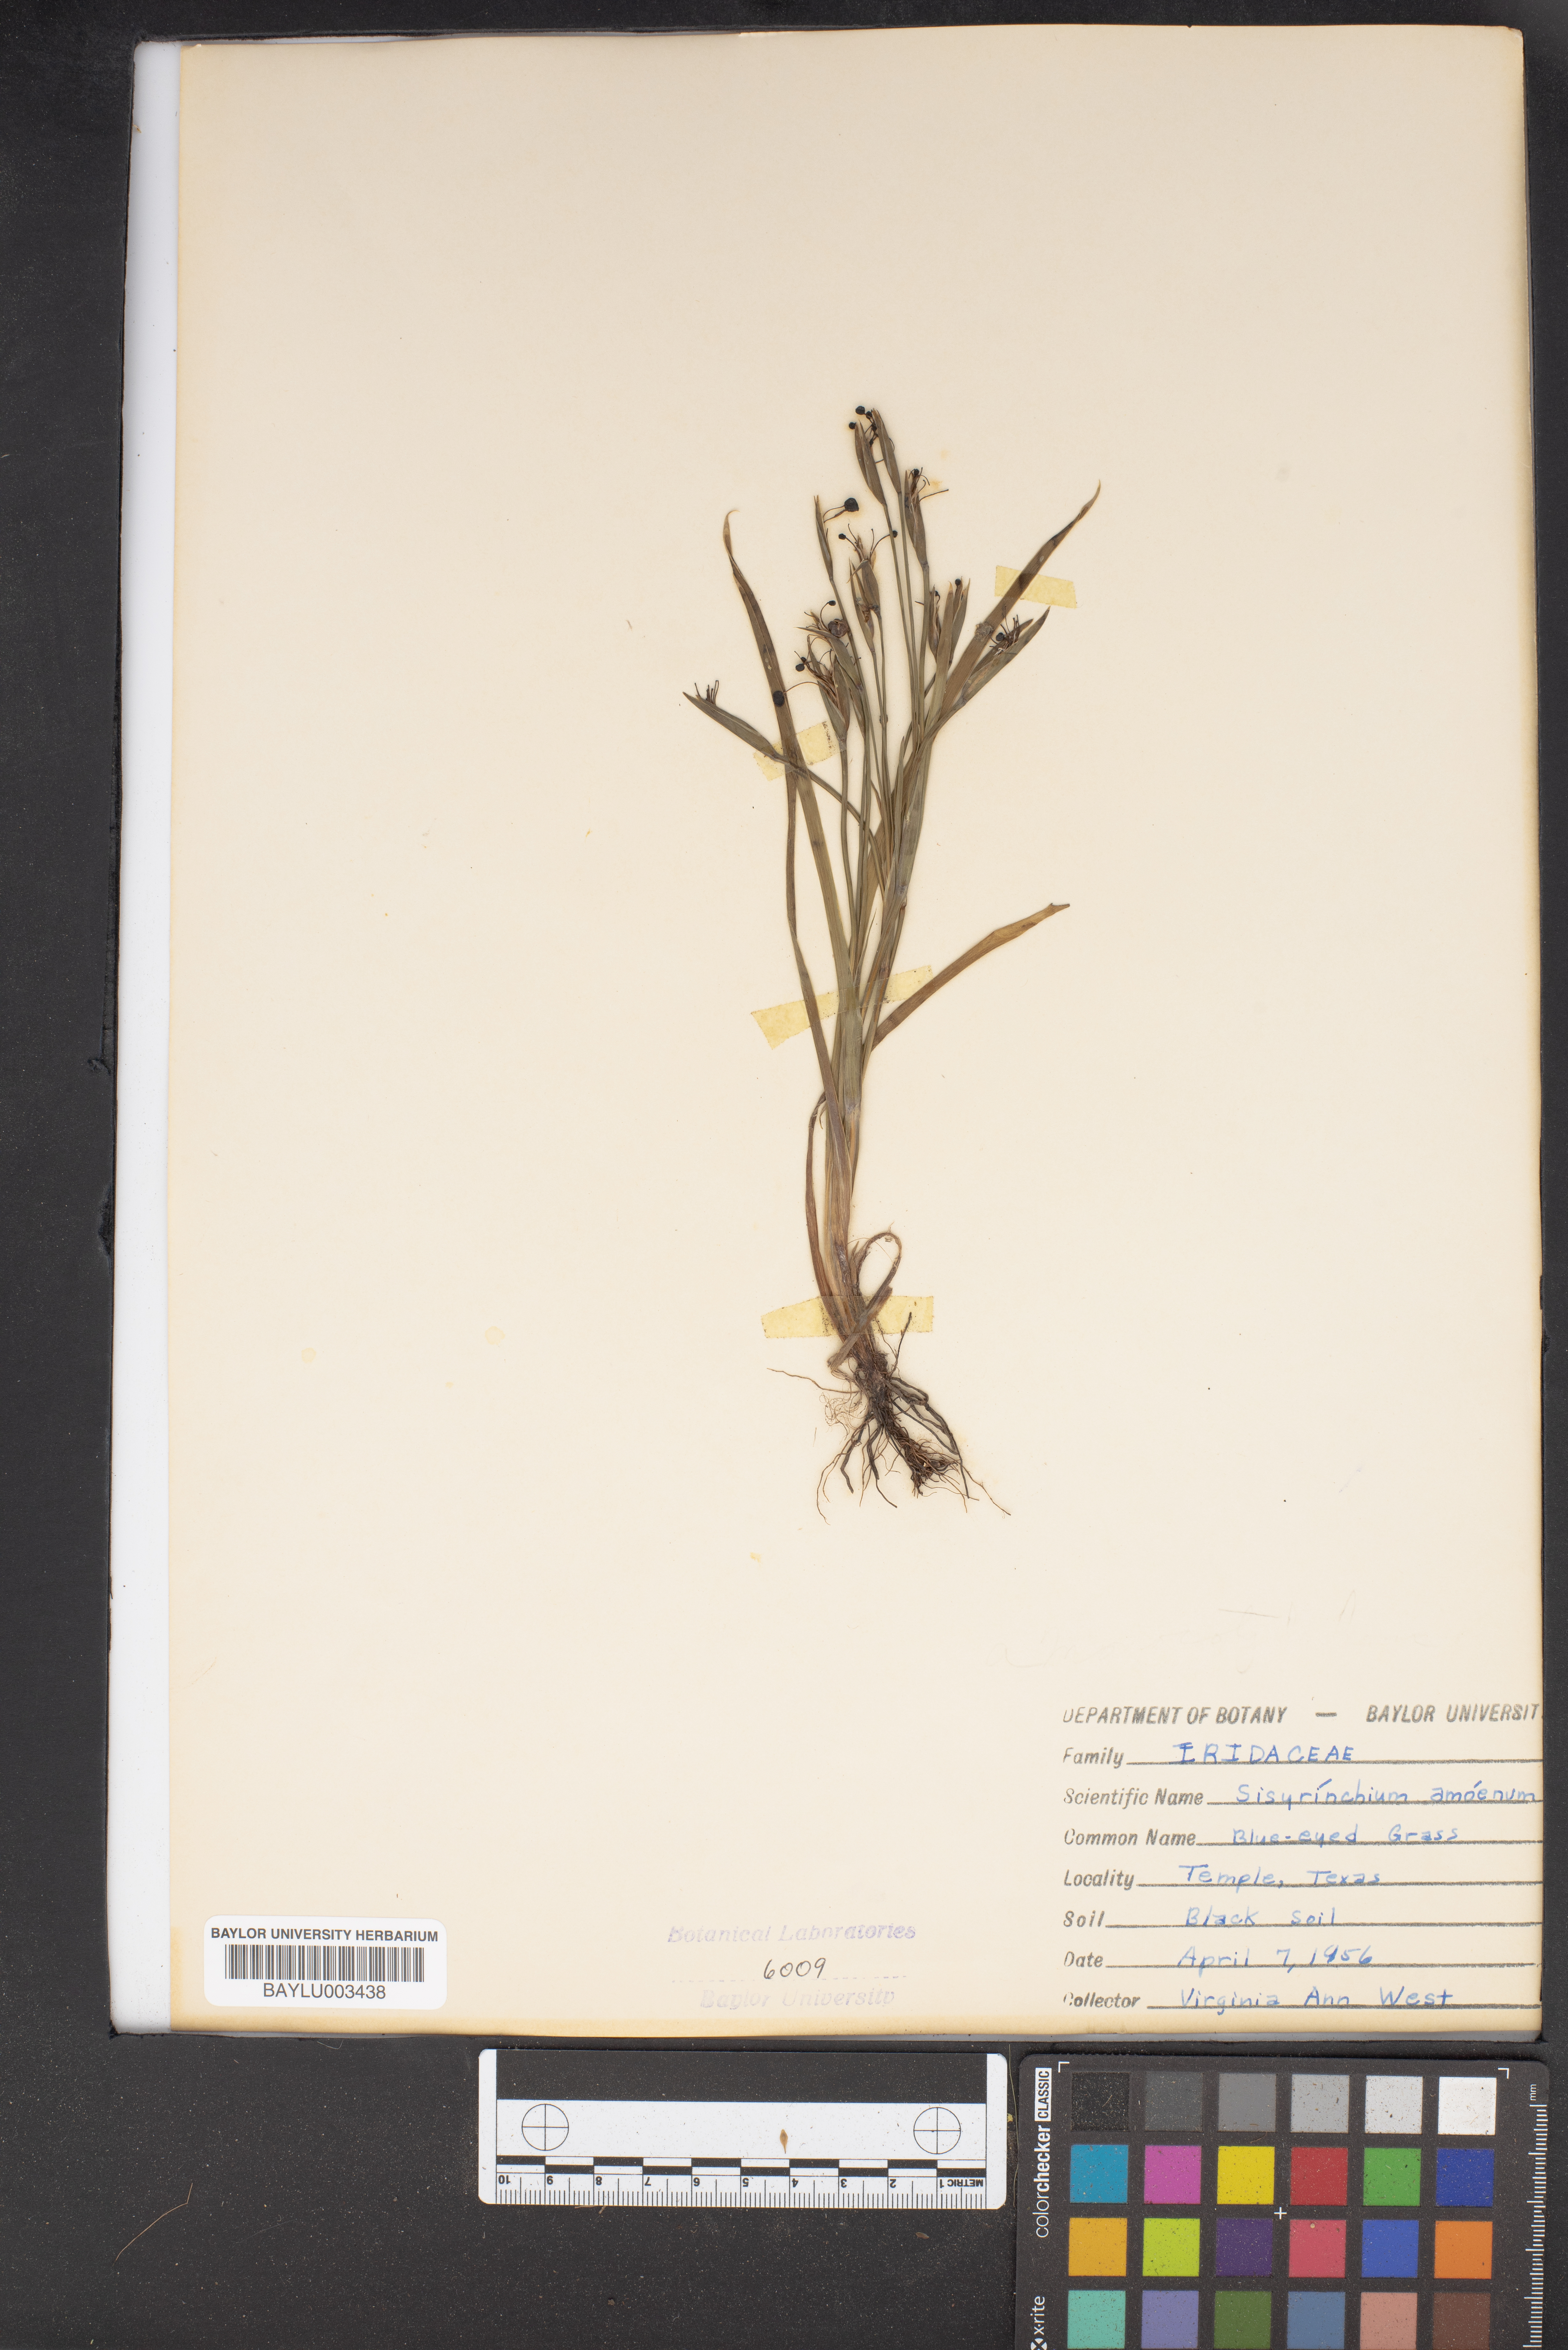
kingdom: Plantae
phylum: Tracheophyta
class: Liliopsida
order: Asparagales
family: Iridaceae
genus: Sisyrinchium
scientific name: Sisyrinchium ensigerum
